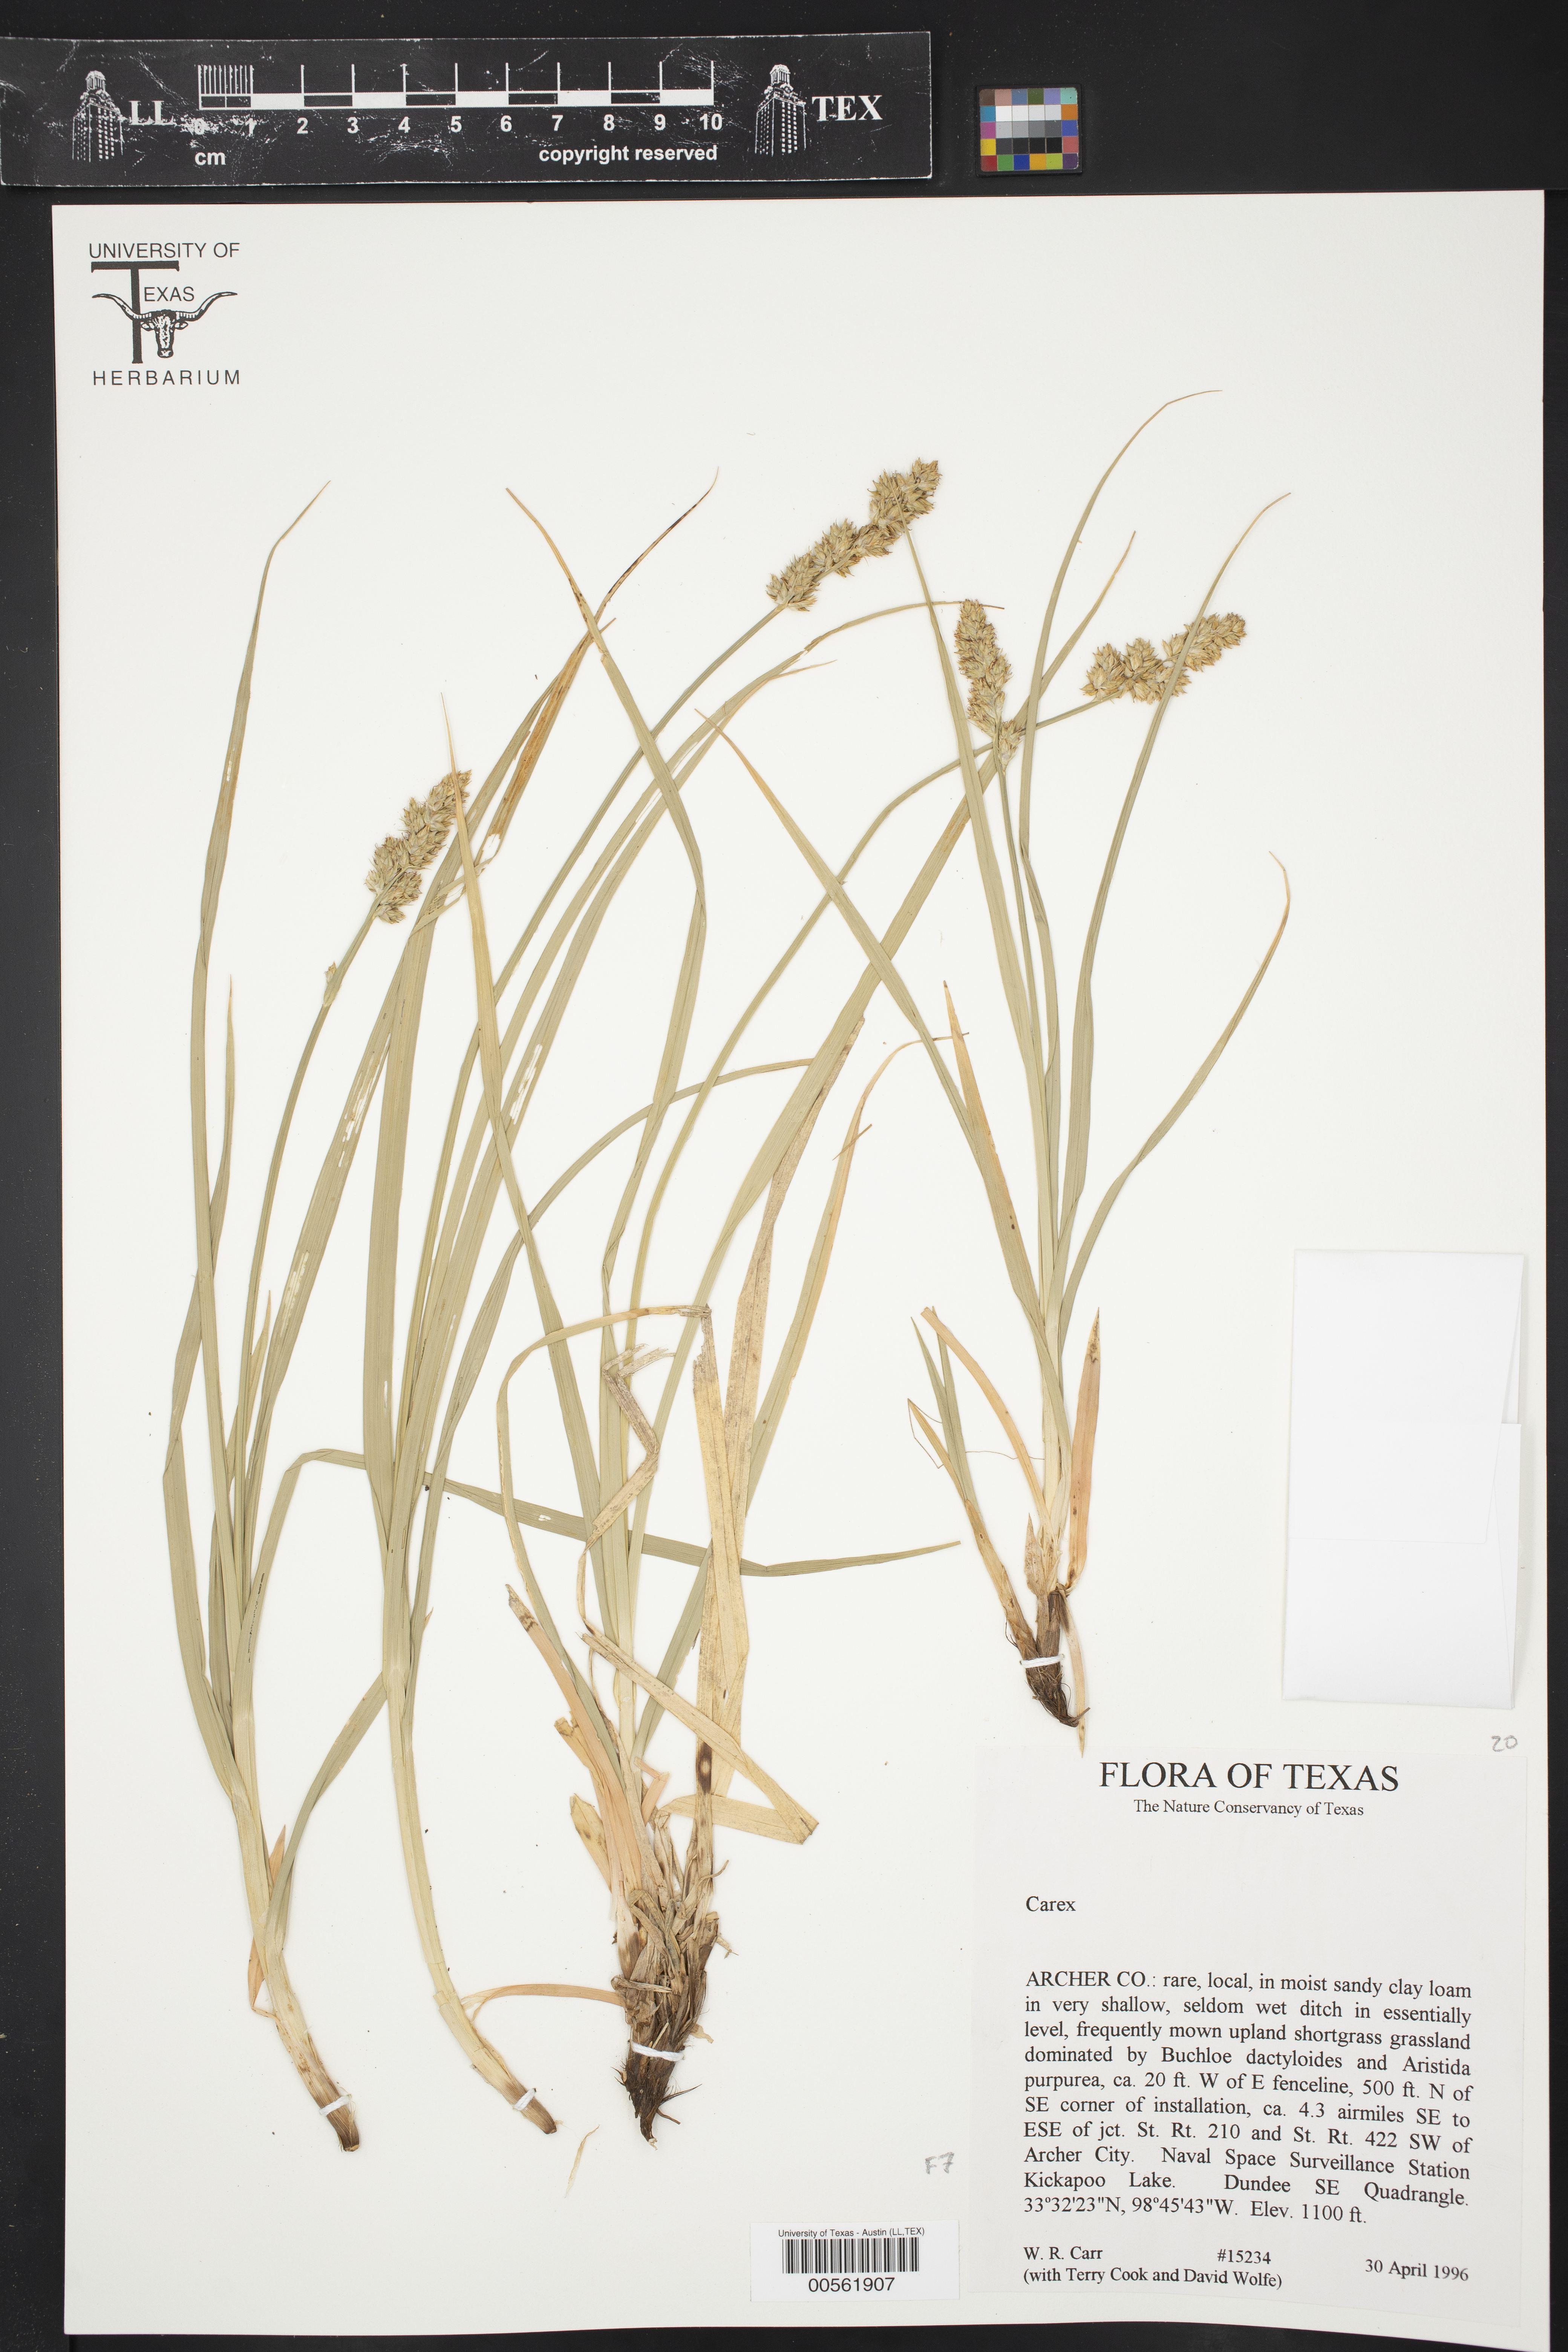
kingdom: Plantae
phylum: Tracheophyta
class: Liliopsida
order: Poales
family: Cyperaceae
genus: Carex
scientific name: Carex
